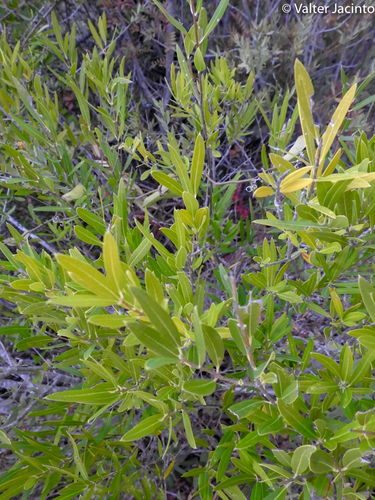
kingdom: Plantae
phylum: Tracheophyta
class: Magnoliopsida
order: Lamiales
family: Oleaceae
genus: Phillyrea
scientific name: Phillyrea angustifolia
